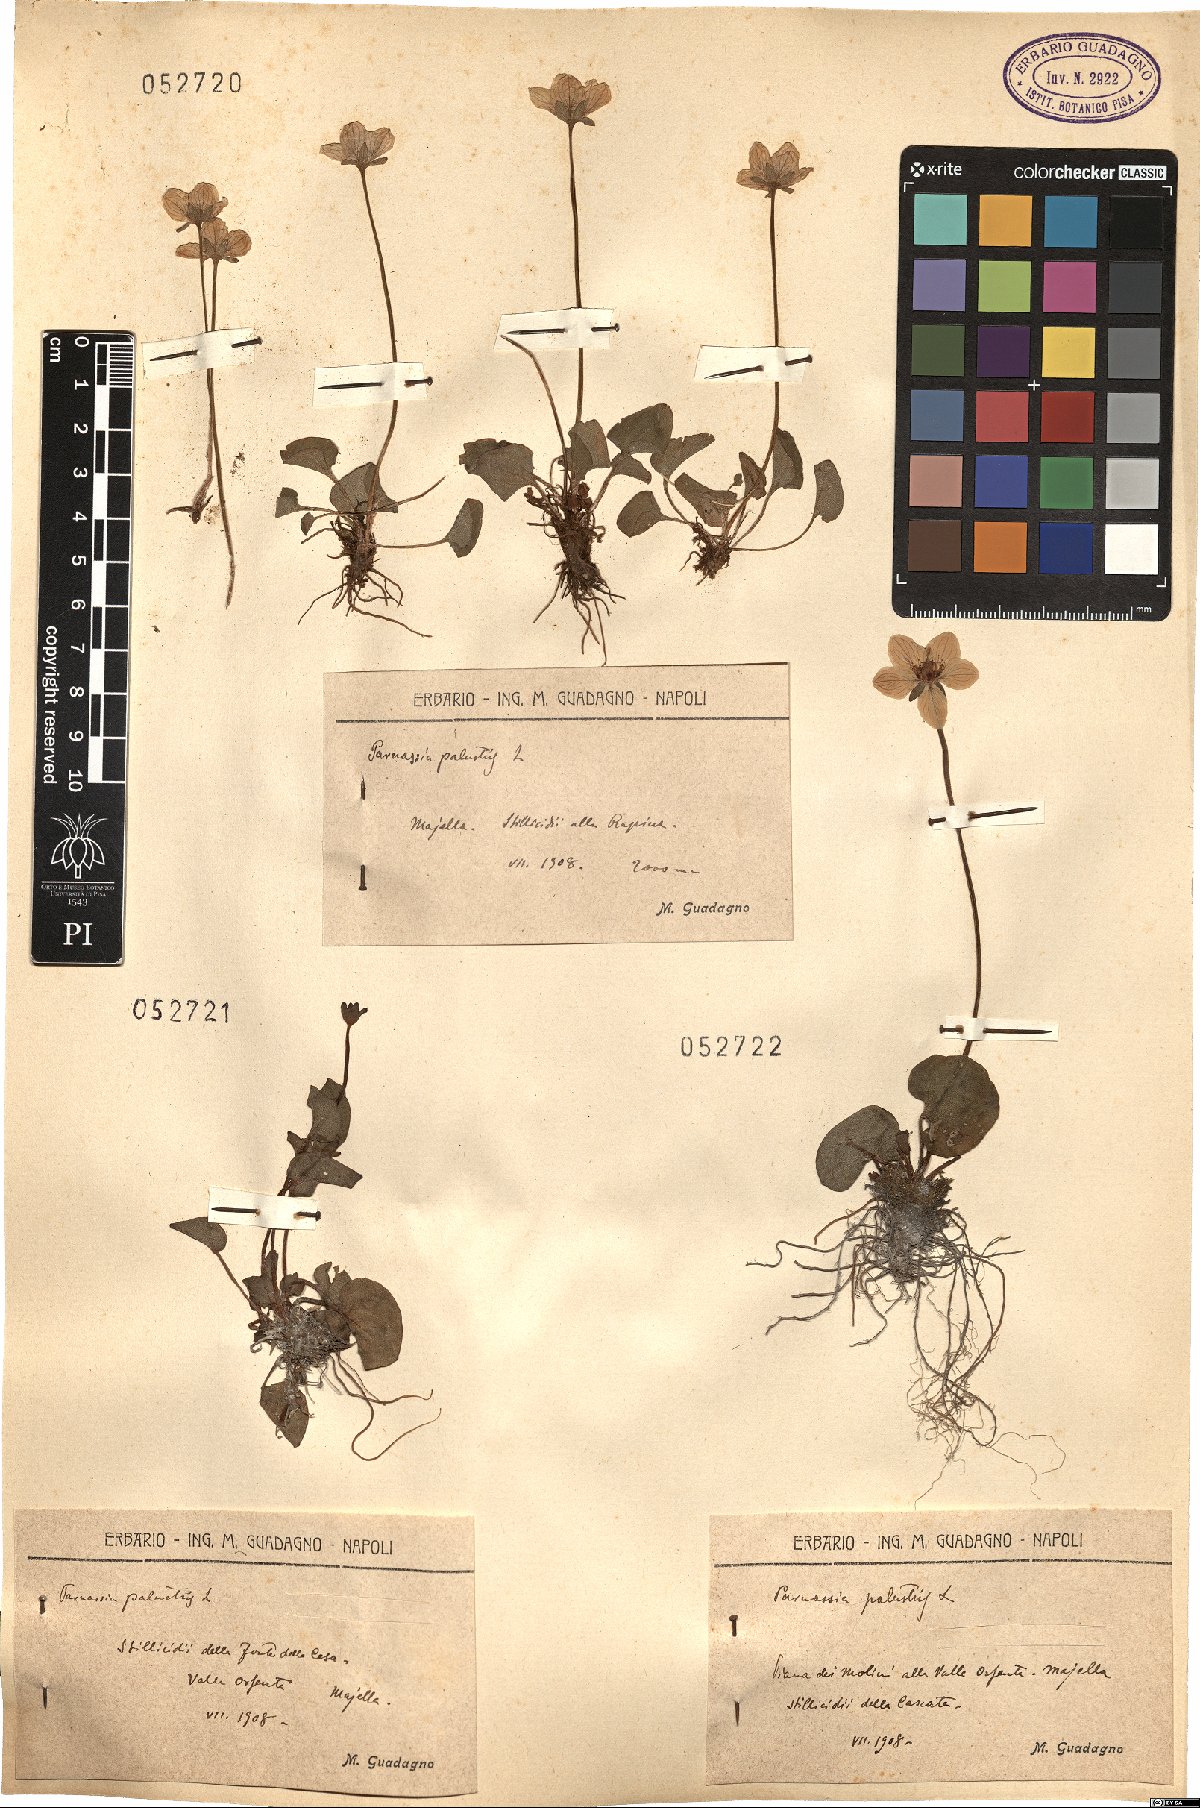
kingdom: Plantae
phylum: Tracheophyta
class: Magnoliopsida
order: Celastrales
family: Parnassiaceae
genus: Parnassia
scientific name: Parnassia palustris
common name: Grass-of-parnassus
